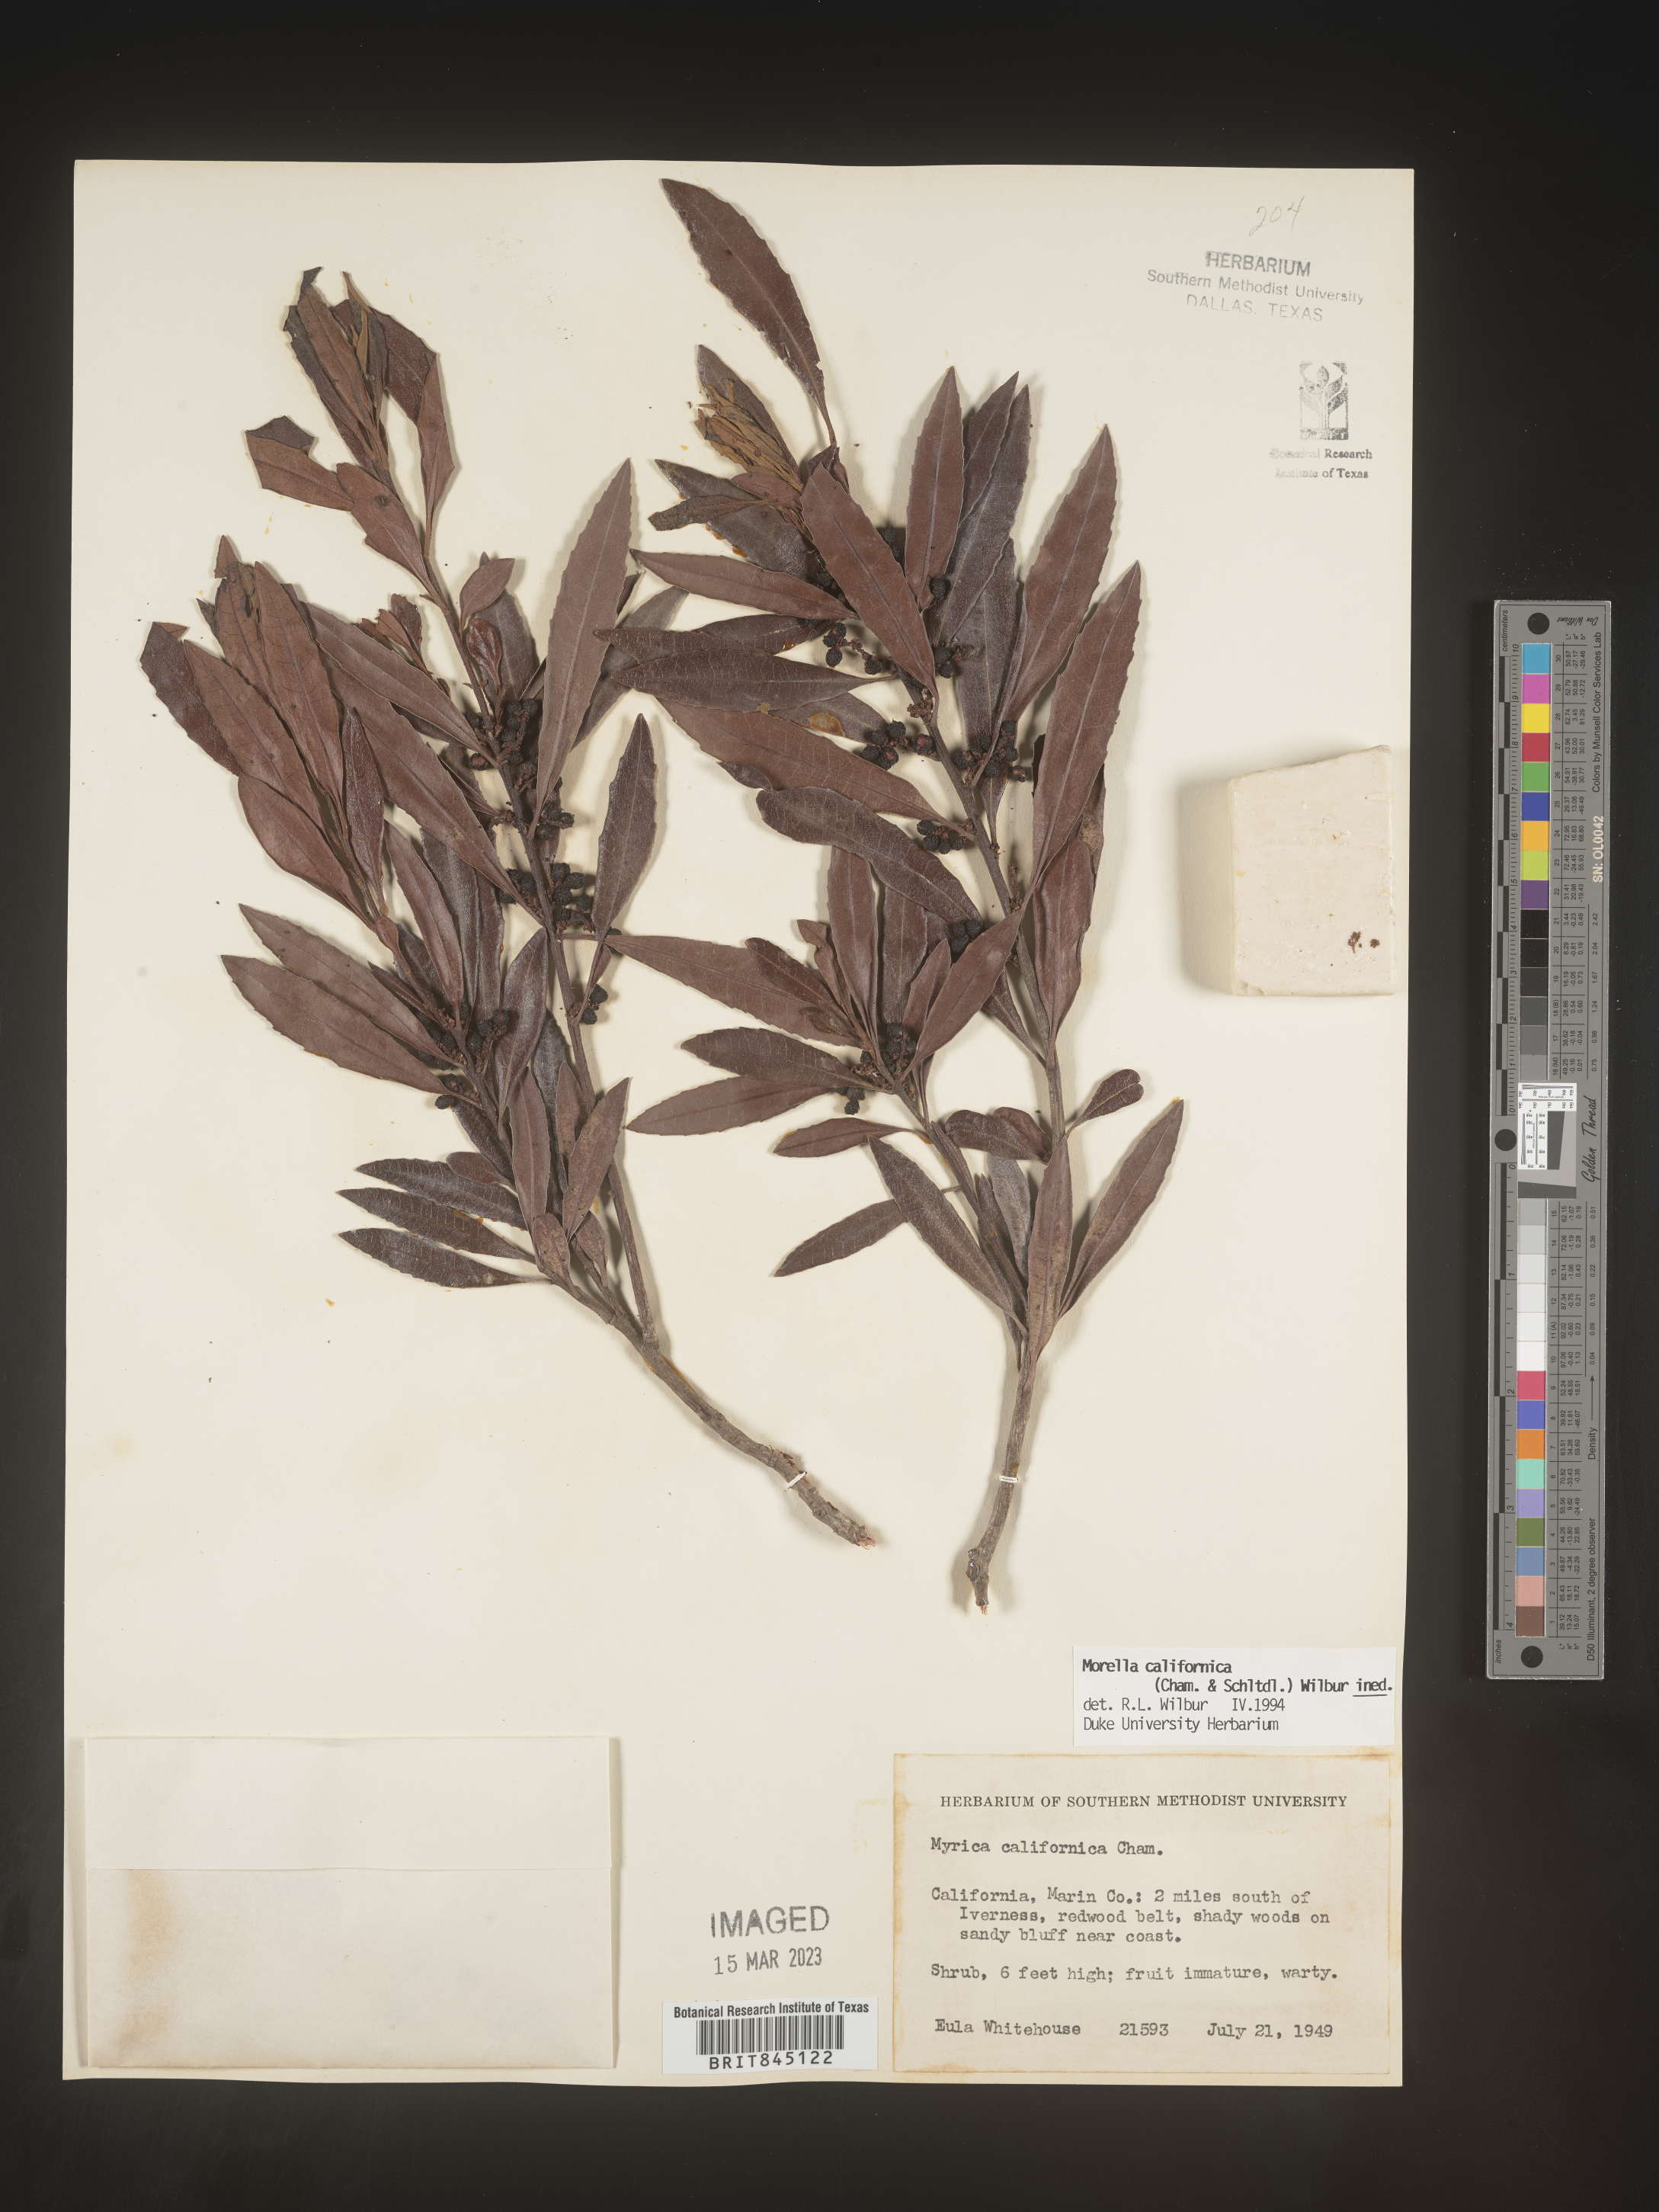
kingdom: Plantae
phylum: Tracheophyta
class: Magnoliopsida
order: Fagales
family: Myricaceae
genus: Morella
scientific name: Morella californica
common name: California wax-myrtle
